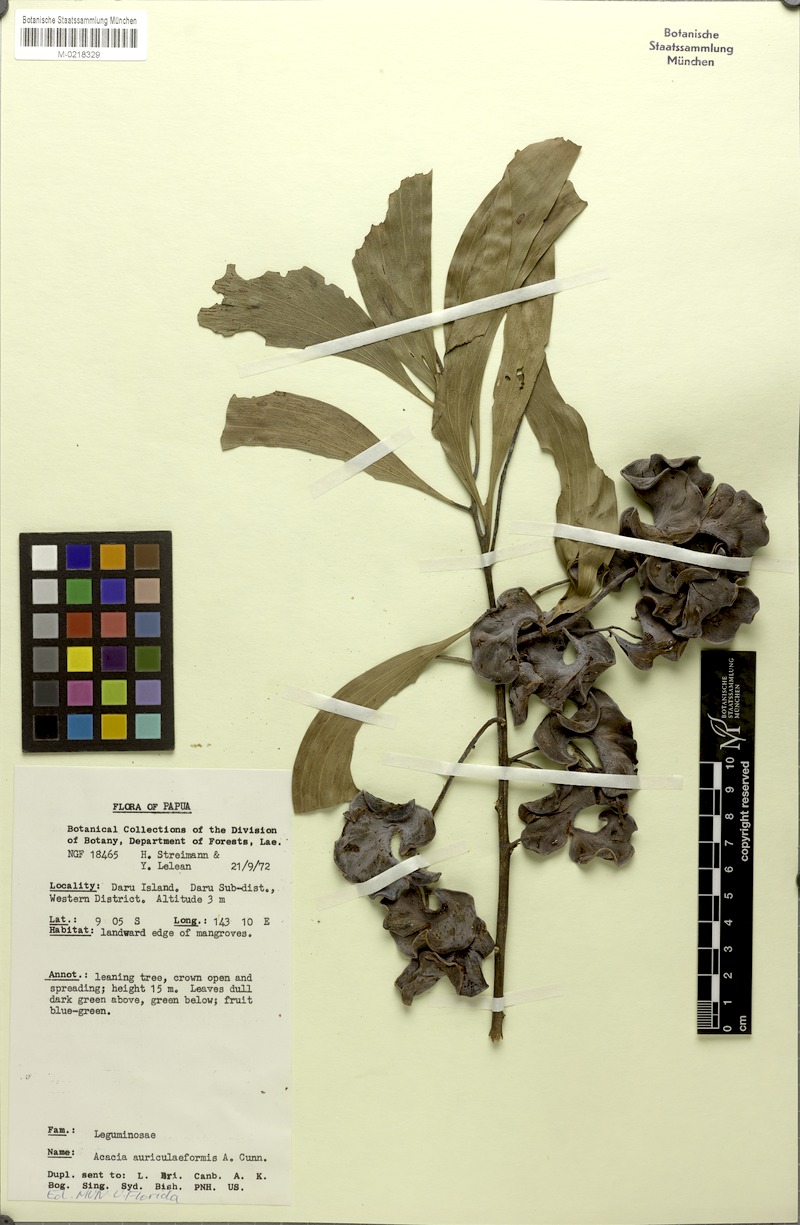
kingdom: Plantae
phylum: Tracheophyta
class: Magnoliopsida
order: Fabales
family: Fabaceae
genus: Acacia
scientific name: Acacia auriculiformis
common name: Earleaf acacia
